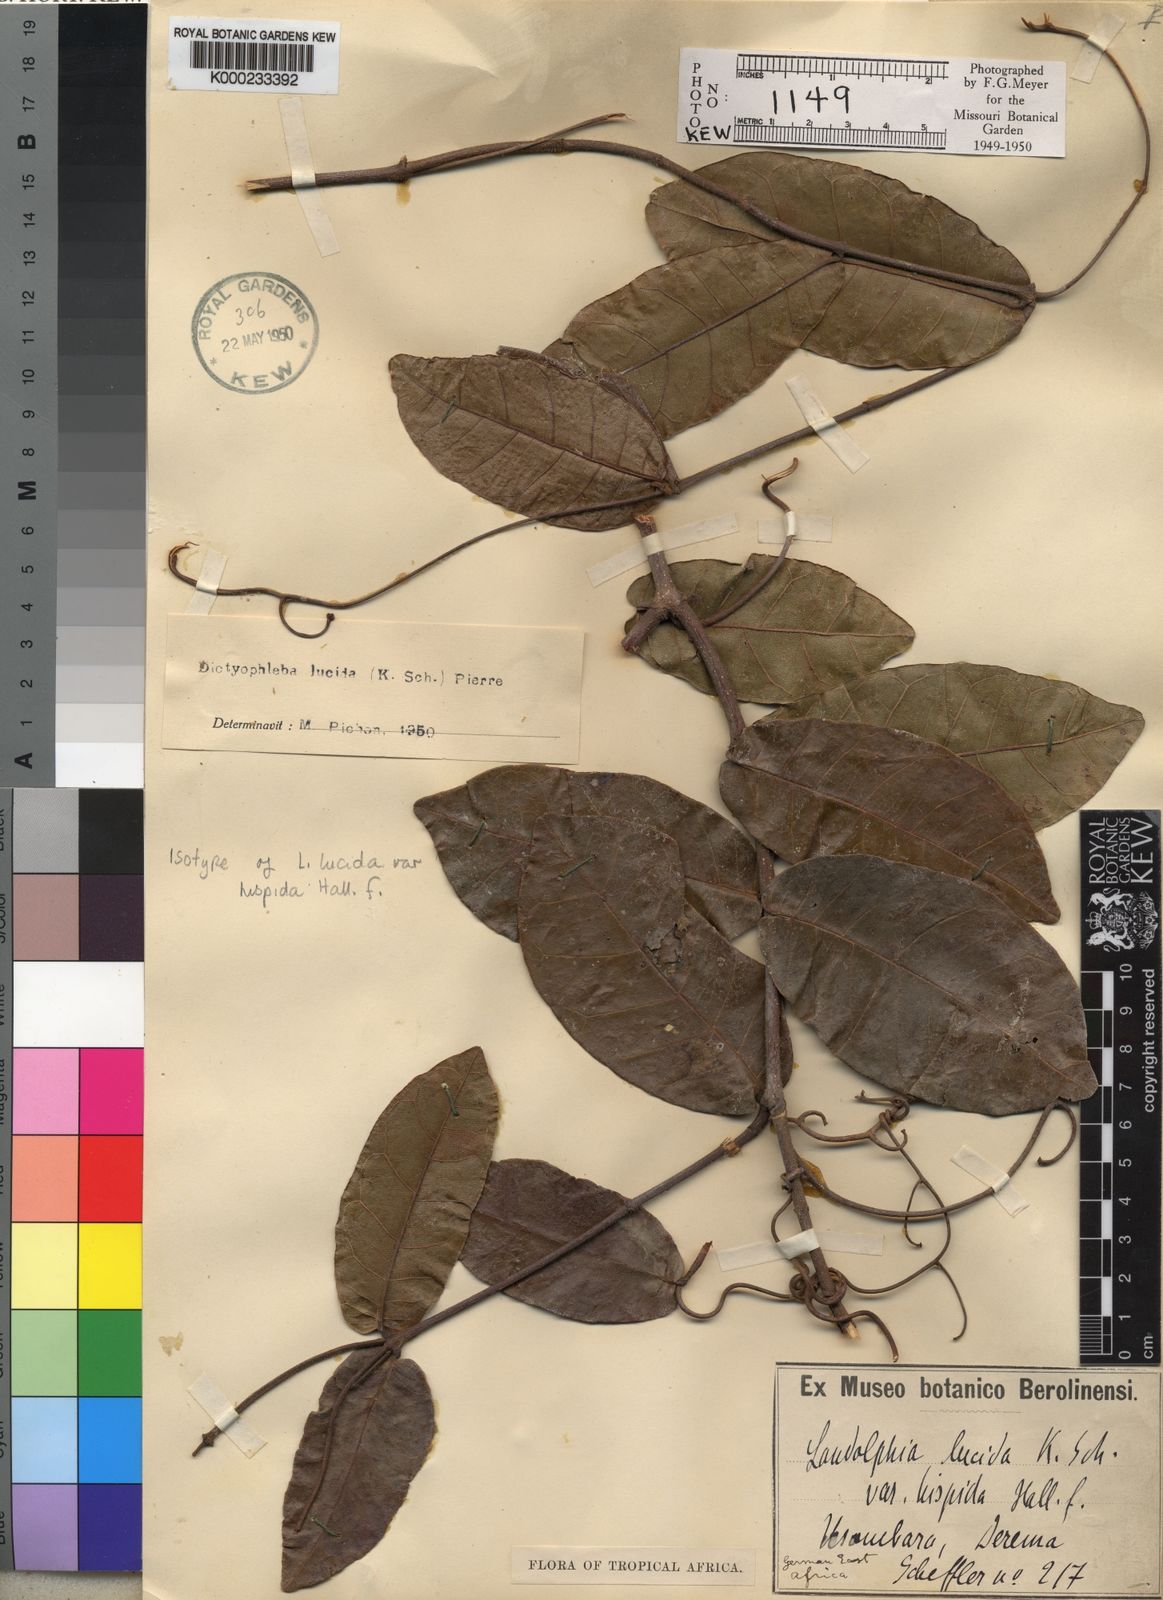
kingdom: Plantae
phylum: Tracheophyta
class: Magnoliopsida
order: Gentianales
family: Apocynaceae
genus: Dictyophleba
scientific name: Dictyophleba lucida
